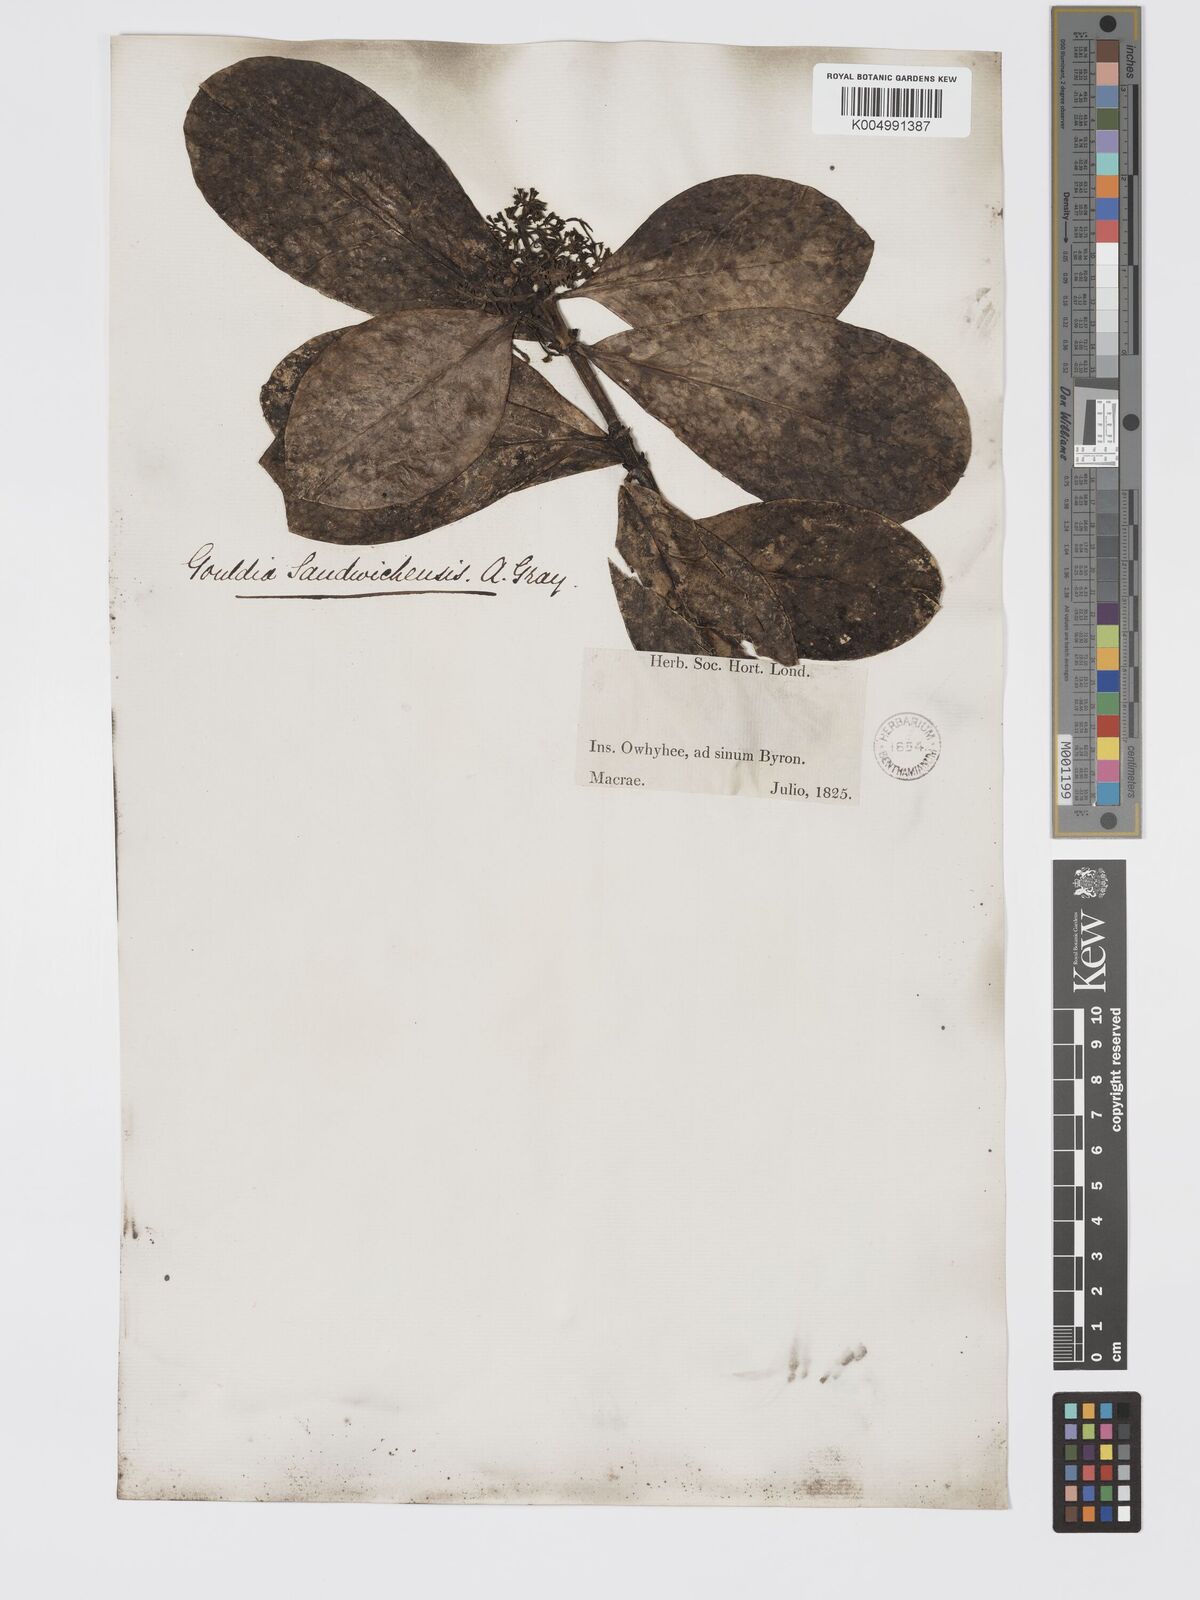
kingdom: Plantae
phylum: Tracheophyta
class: Magnoliopsida
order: Gentianales
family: Rubiaceae
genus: Kadua
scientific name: Kadua affinis
